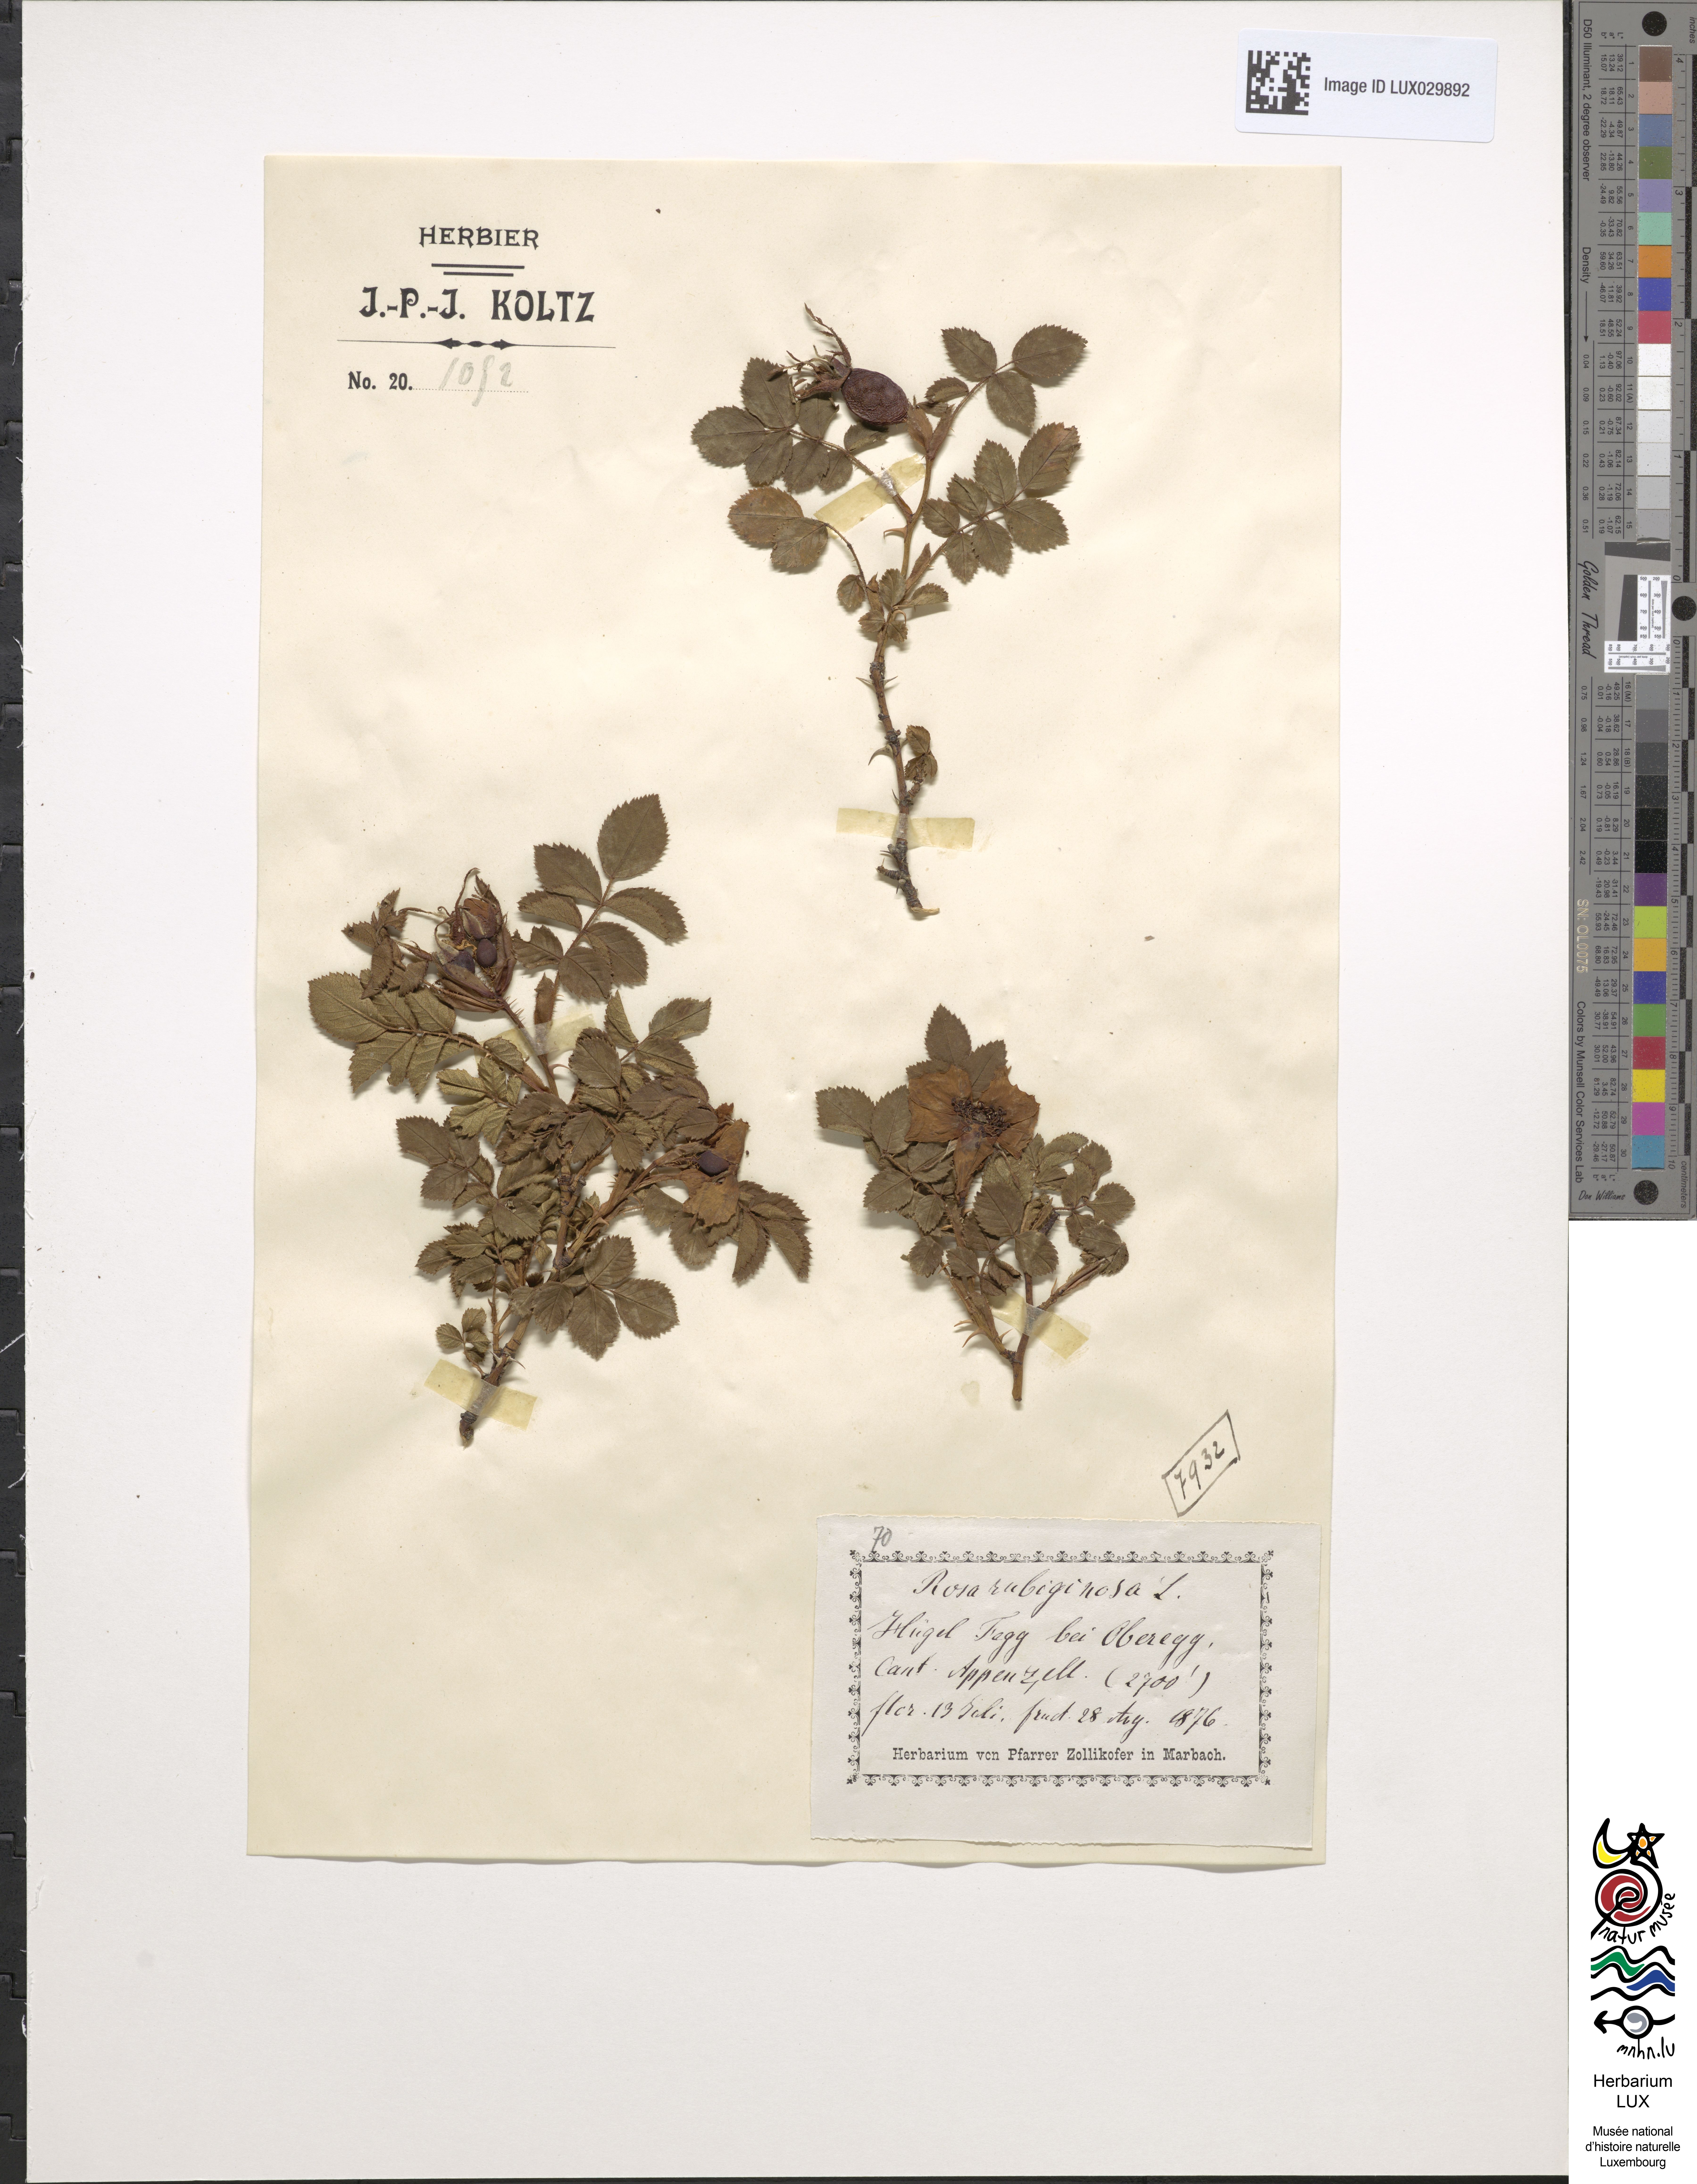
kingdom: Plantae
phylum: Tracheophyta
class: Magnoliopsida
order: Rosales
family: Rosaceae
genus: Rosa
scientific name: Rosa rubiginosa
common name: Sweet-briar
